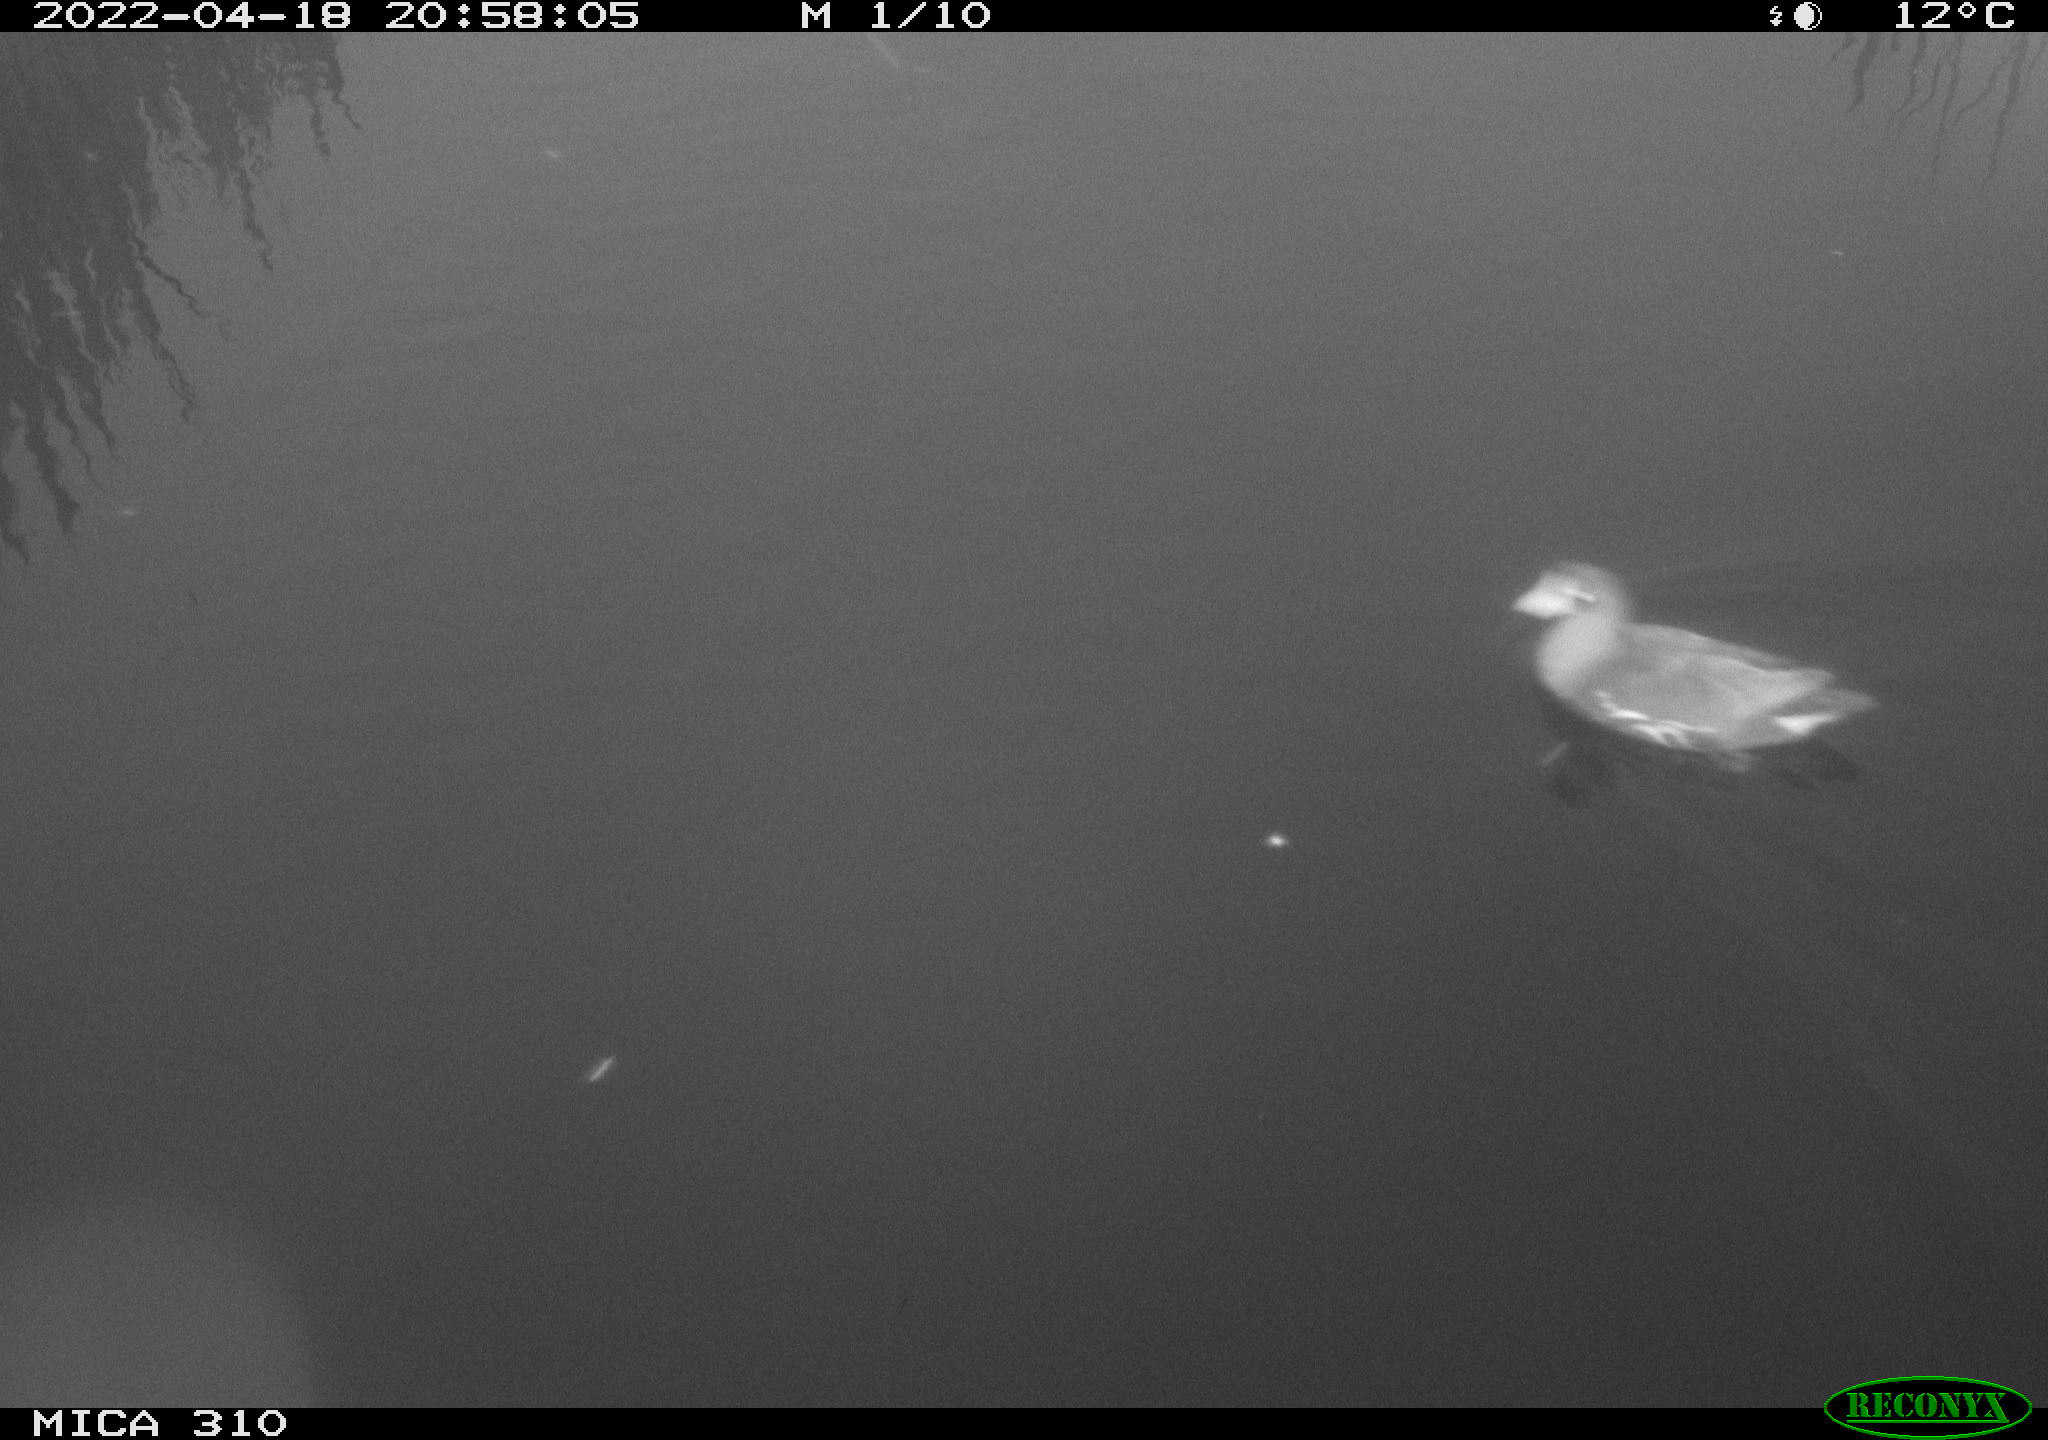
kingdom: Animalia
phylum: Chordata
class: Aves
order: Gruiformes
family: Rallidae
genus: Gallinula
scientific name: Gallinula chloropus
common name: Common moorhen
